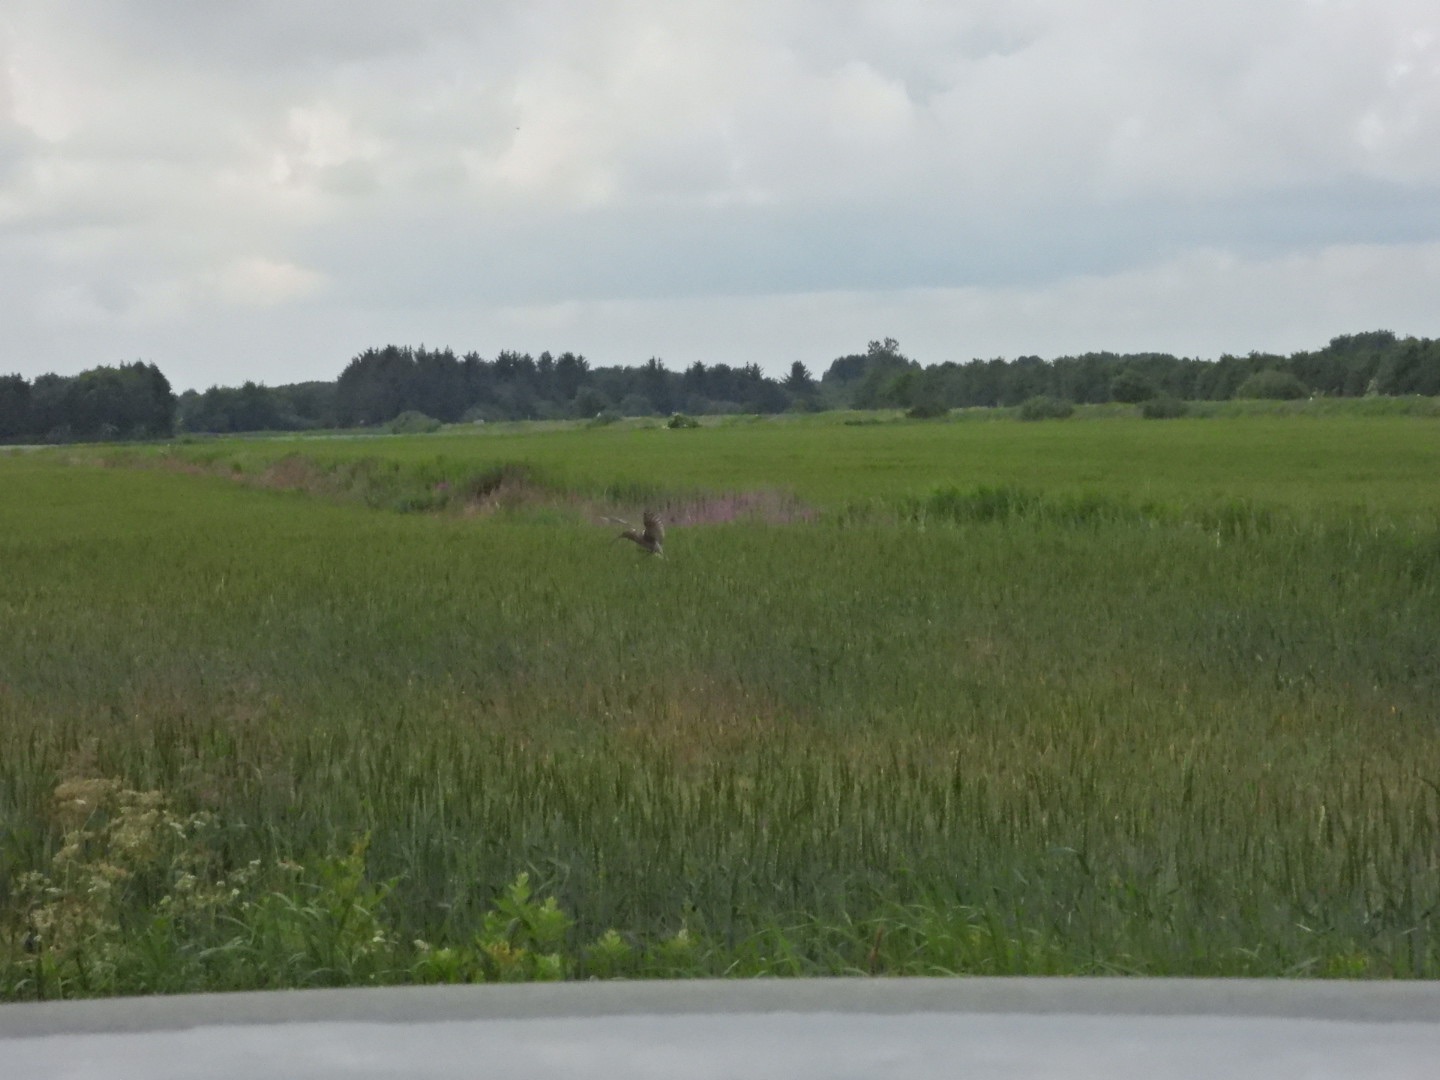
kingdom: Animalia
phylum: Chordata
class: Aves
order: Charadriiformes
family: Scolopacidae
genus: Numenius
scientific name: Numenius arquata
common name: Storspove
